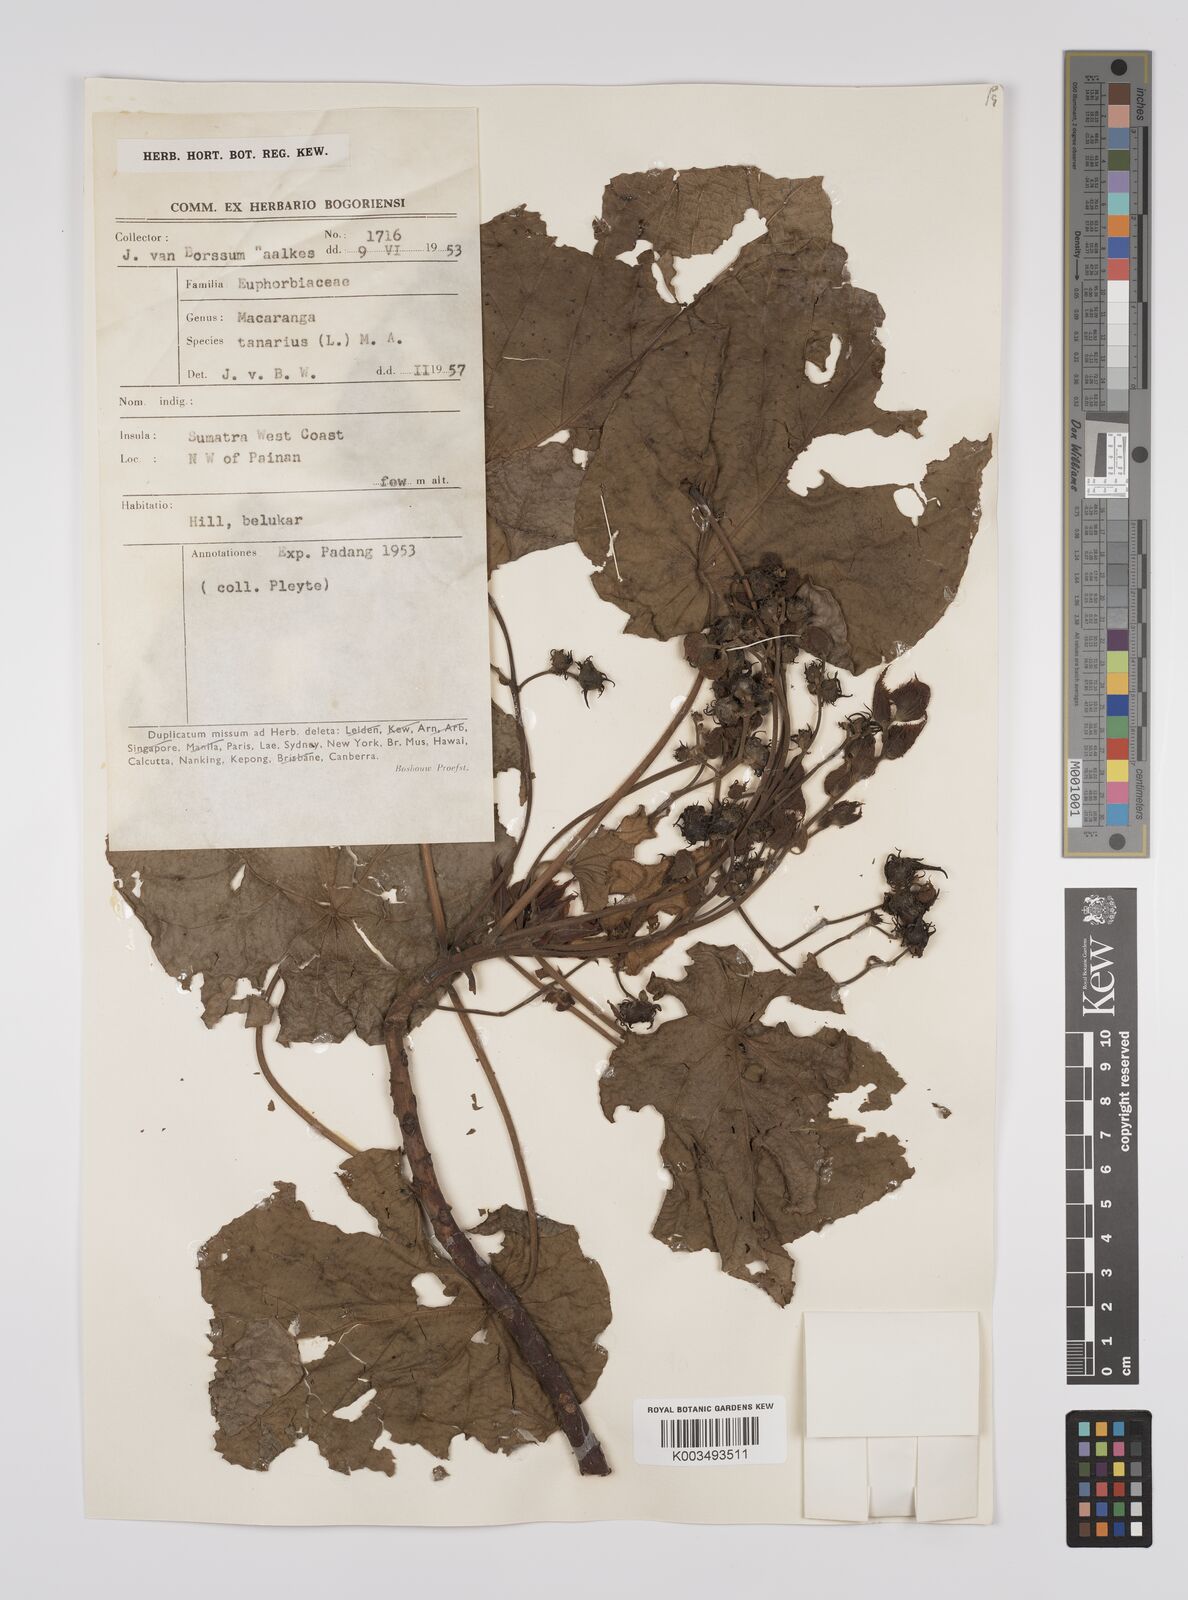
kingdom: Plantae
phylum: Tracheophyta
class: Magnoliopsida
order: Malpighiales
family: Euphorbiaceae
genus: Macaranga
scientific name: Macaranga tanarius
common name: Parasol leaf tree
